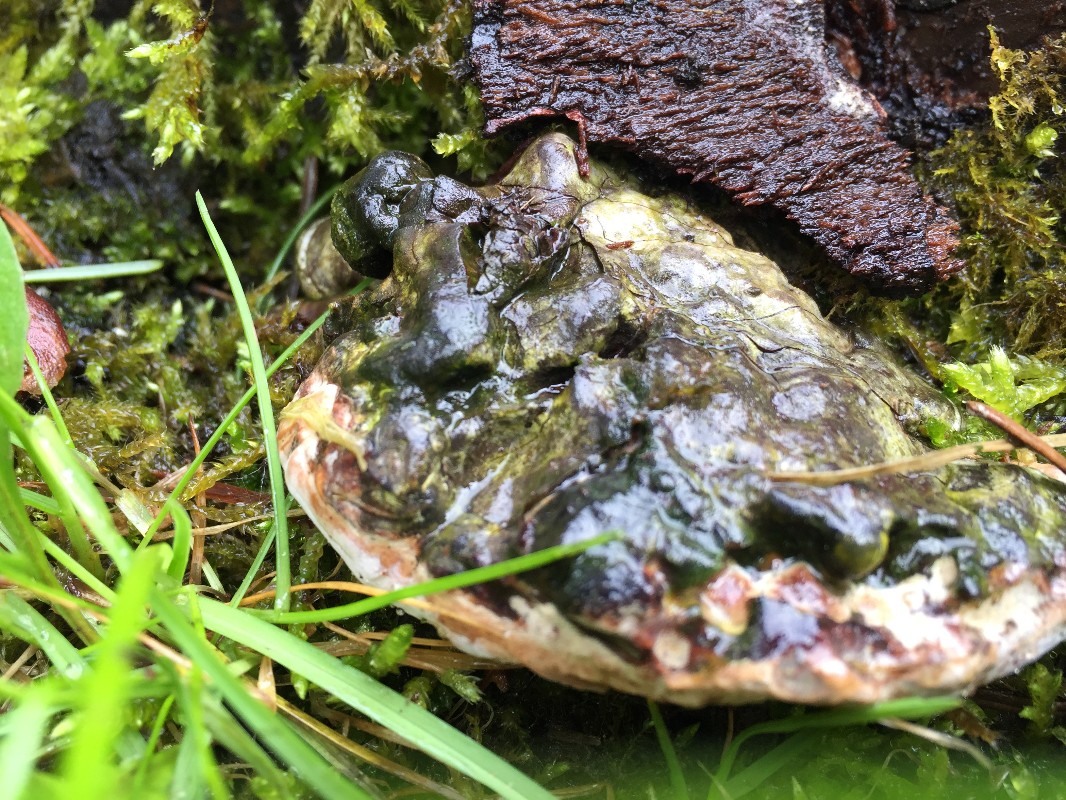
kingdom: Fungi
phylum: Basidiomycota
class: Agaricomycetes
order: Polyporales
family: Polyporaceae
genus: Ganoderma
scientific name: Ganoderma applanatum
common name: flad lakporesvamp
